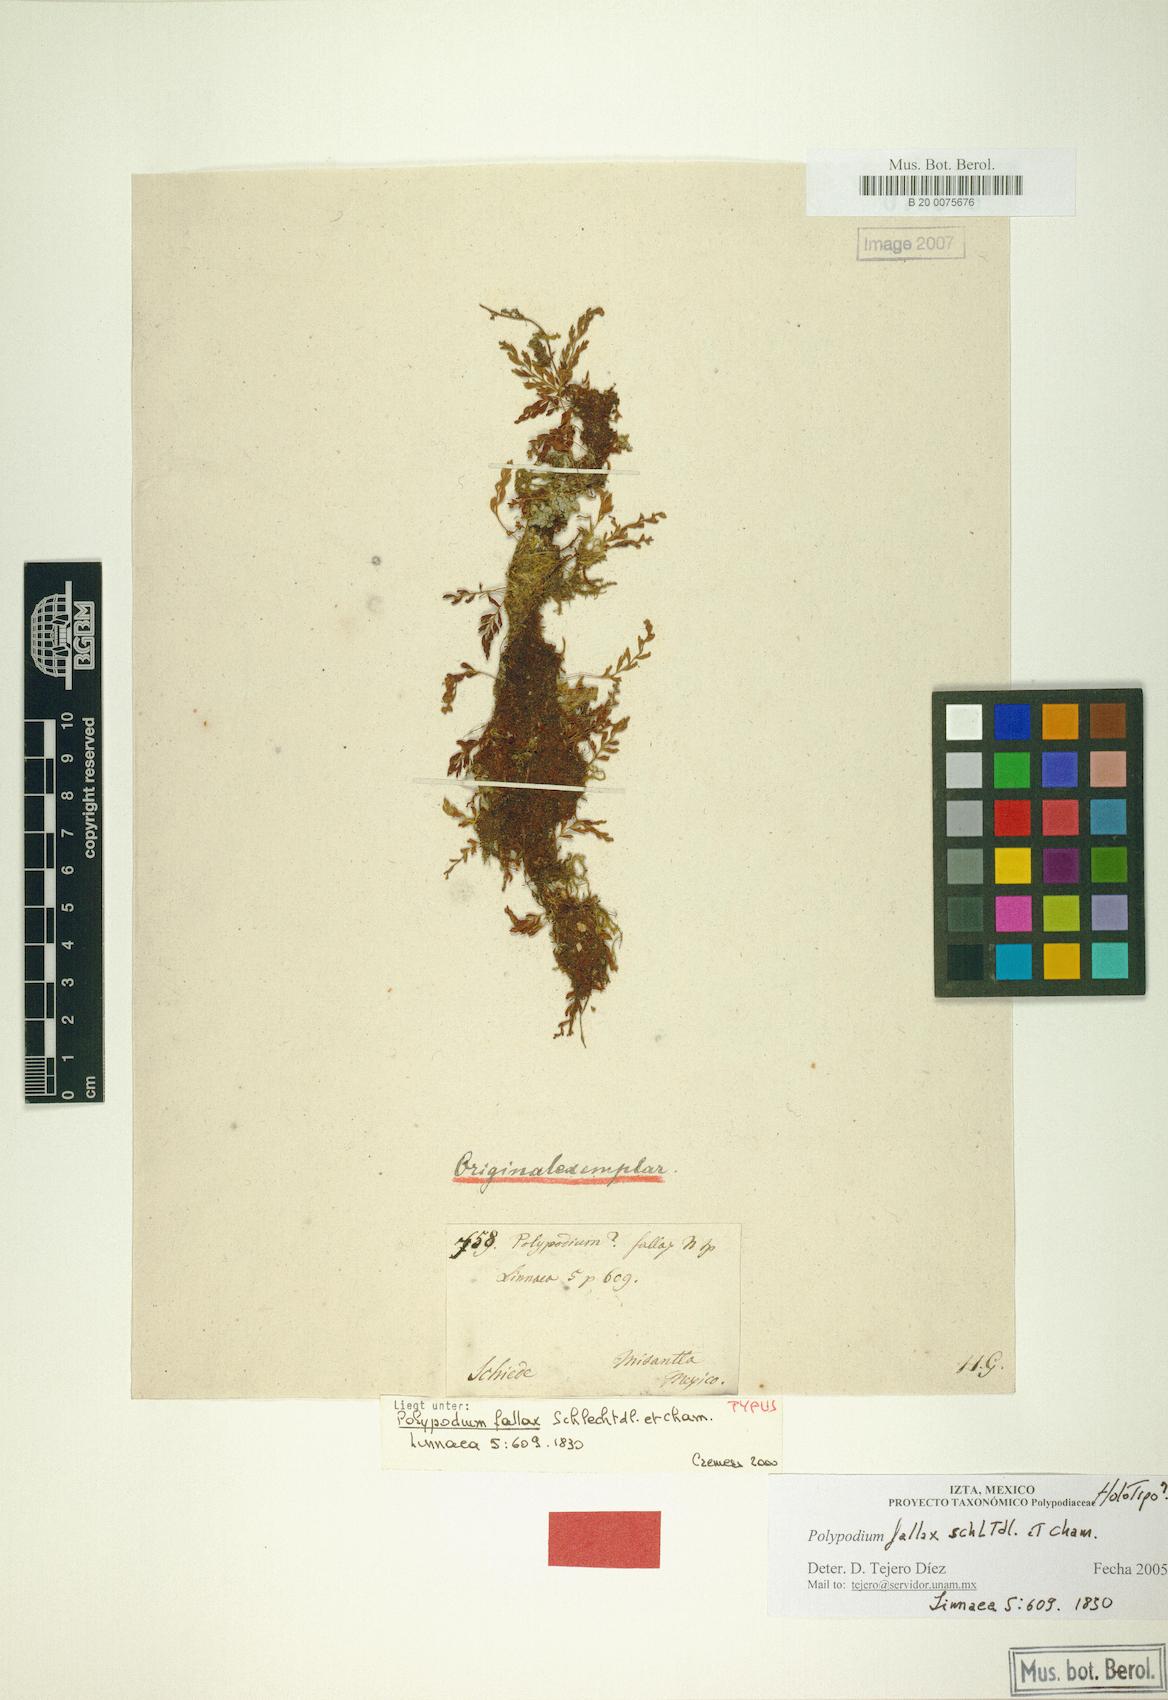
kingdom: Plantae
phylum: Tracheophyta
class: Polypodiopsida
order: Polypodiales
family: Polypodiaceae
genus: Pleopeltis
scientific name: Pleopeltis fallax
